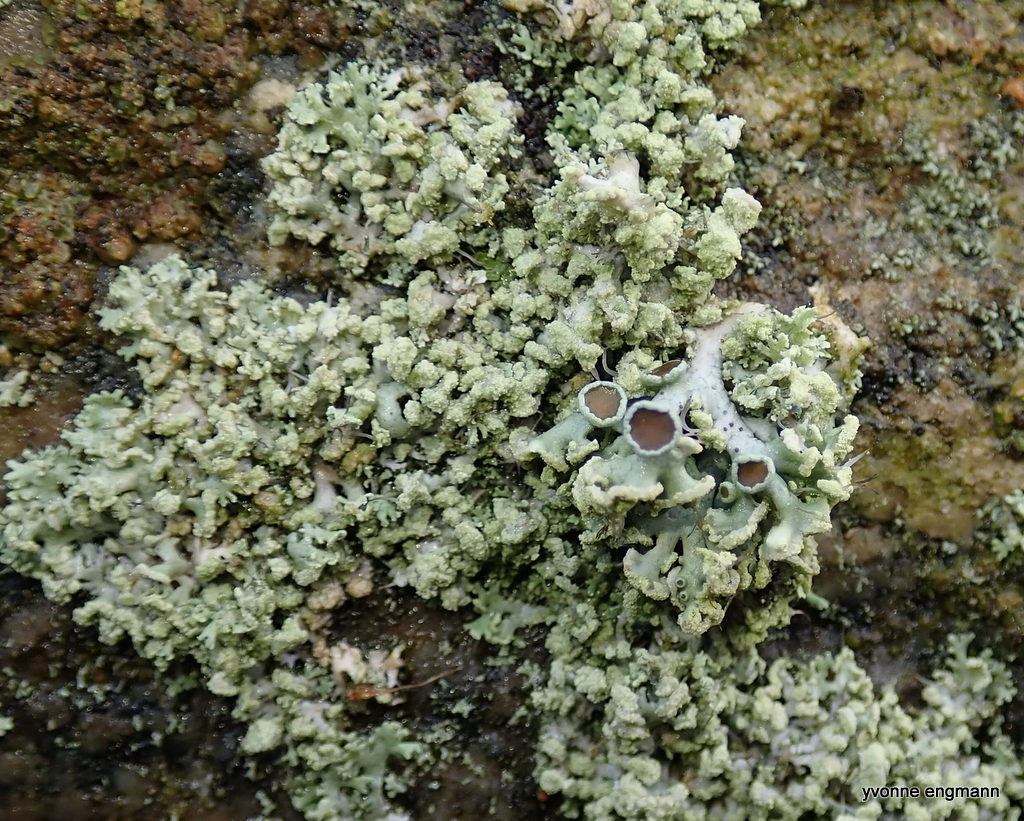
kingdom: Fungi
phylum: Ascomycota
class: Lecanoromycetes
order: Caliciales
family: Physciaceae
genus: Physcia
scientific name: Physcia tenella
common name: spæd rosetlav
